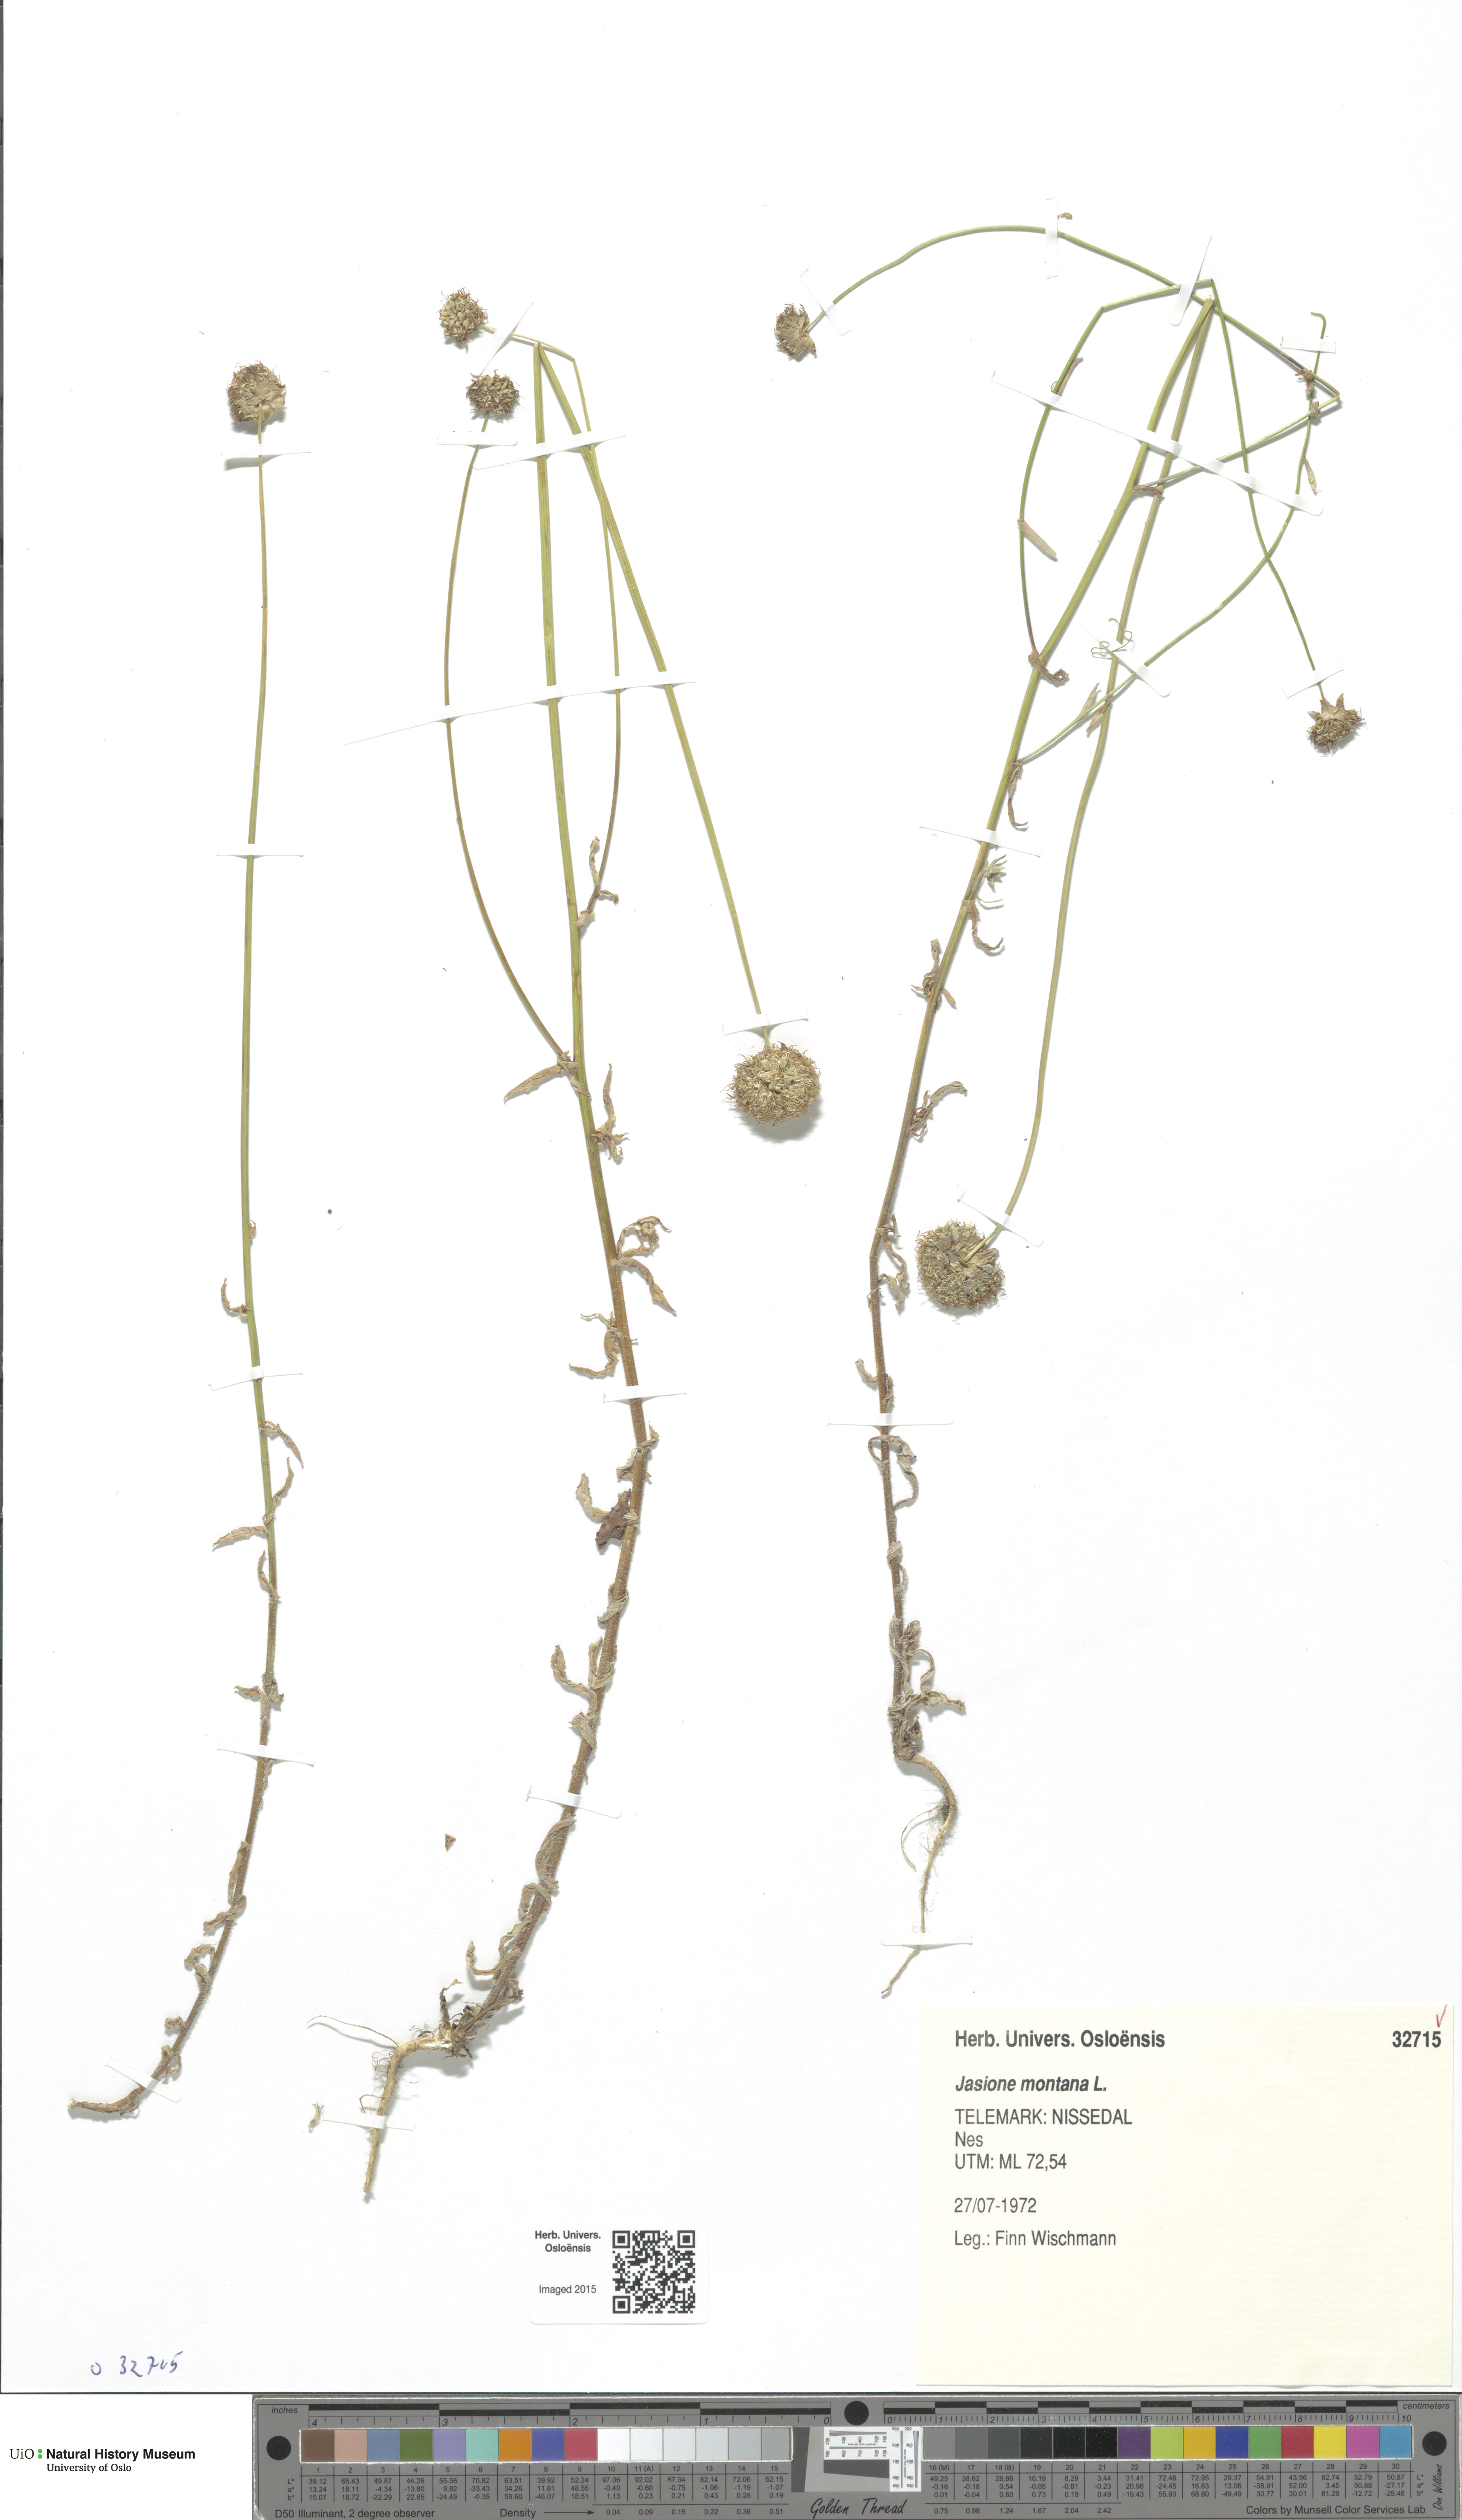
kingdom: Plantae
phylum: Tracheophyta
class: Magnoliopsida
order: Asterales
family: Campanulaceae
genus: Jasione
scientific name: Jasione montana
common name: Sheep's-bit
